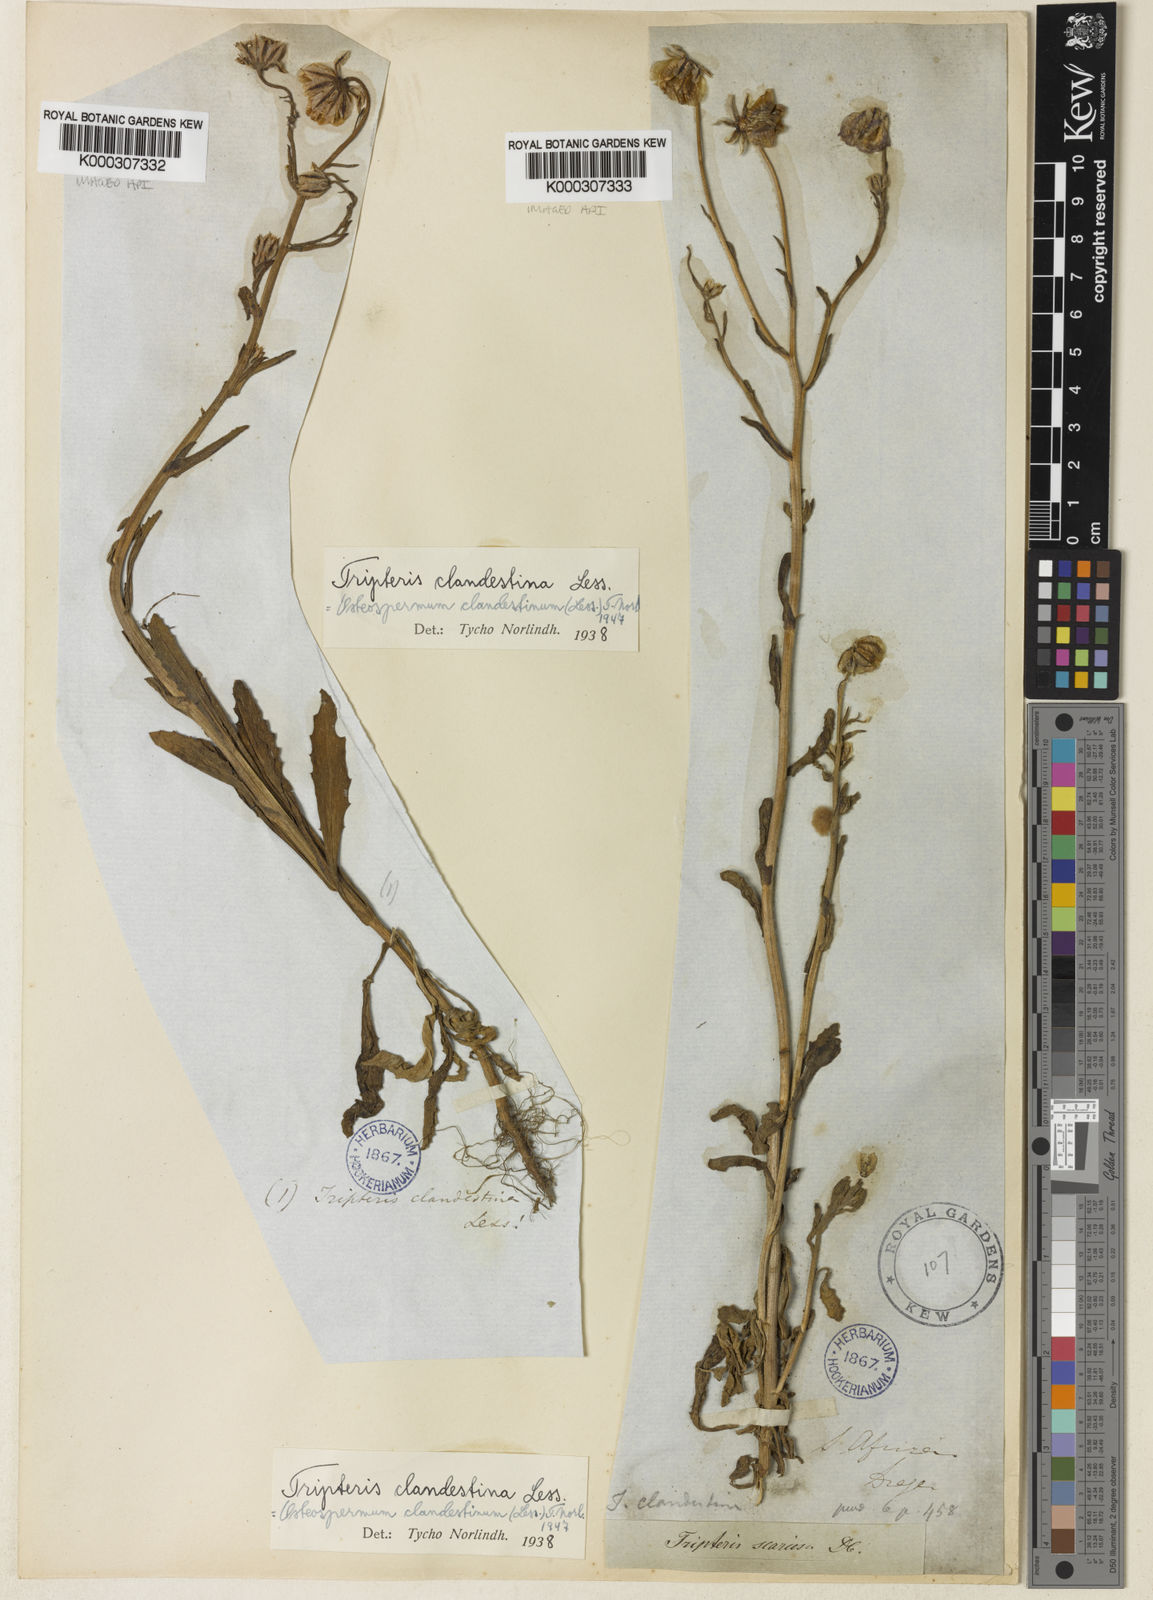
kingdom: Plantae
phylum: Tracheophyta
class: Magnoliopsida
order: Asterales
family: Asteraceae
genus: Osteospermum
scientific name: Osteospermum monstrosum
